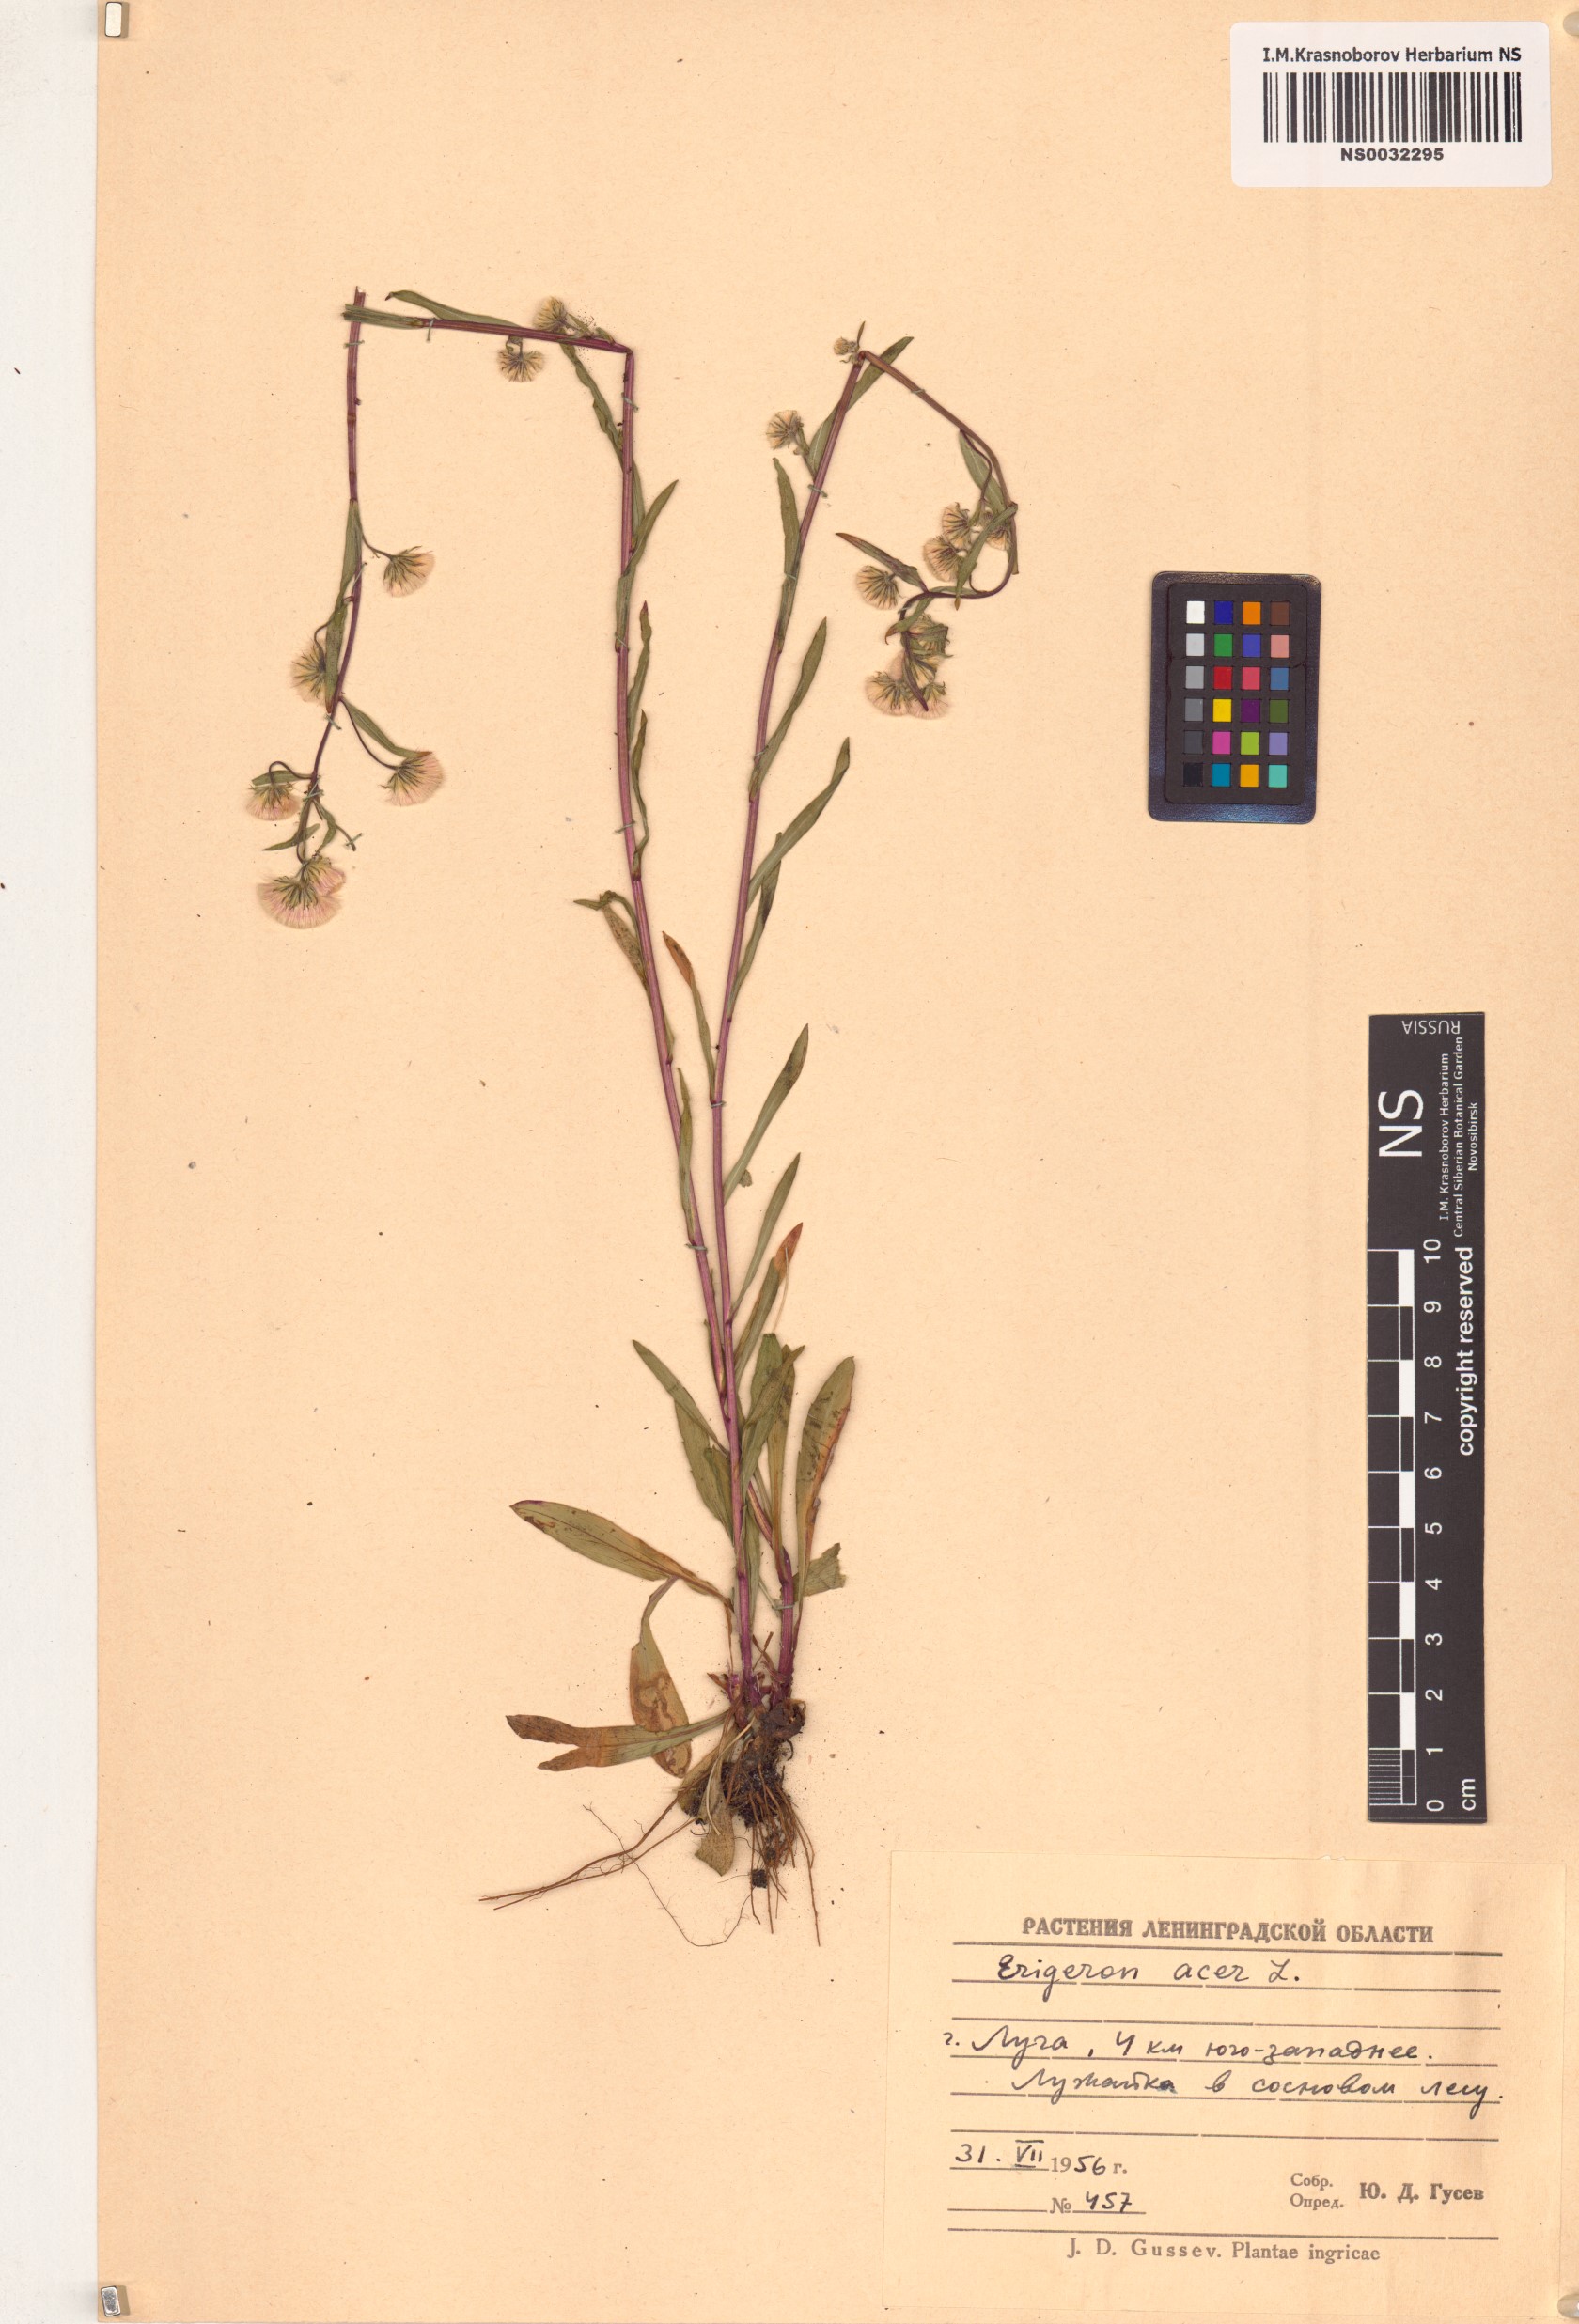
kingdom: Plantae
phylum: Tracheophyta
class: Magnoliopsida
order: Asterales
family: Asteraceae
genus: Erigeron
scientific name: Erigeron acris
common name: Blue fleabane
